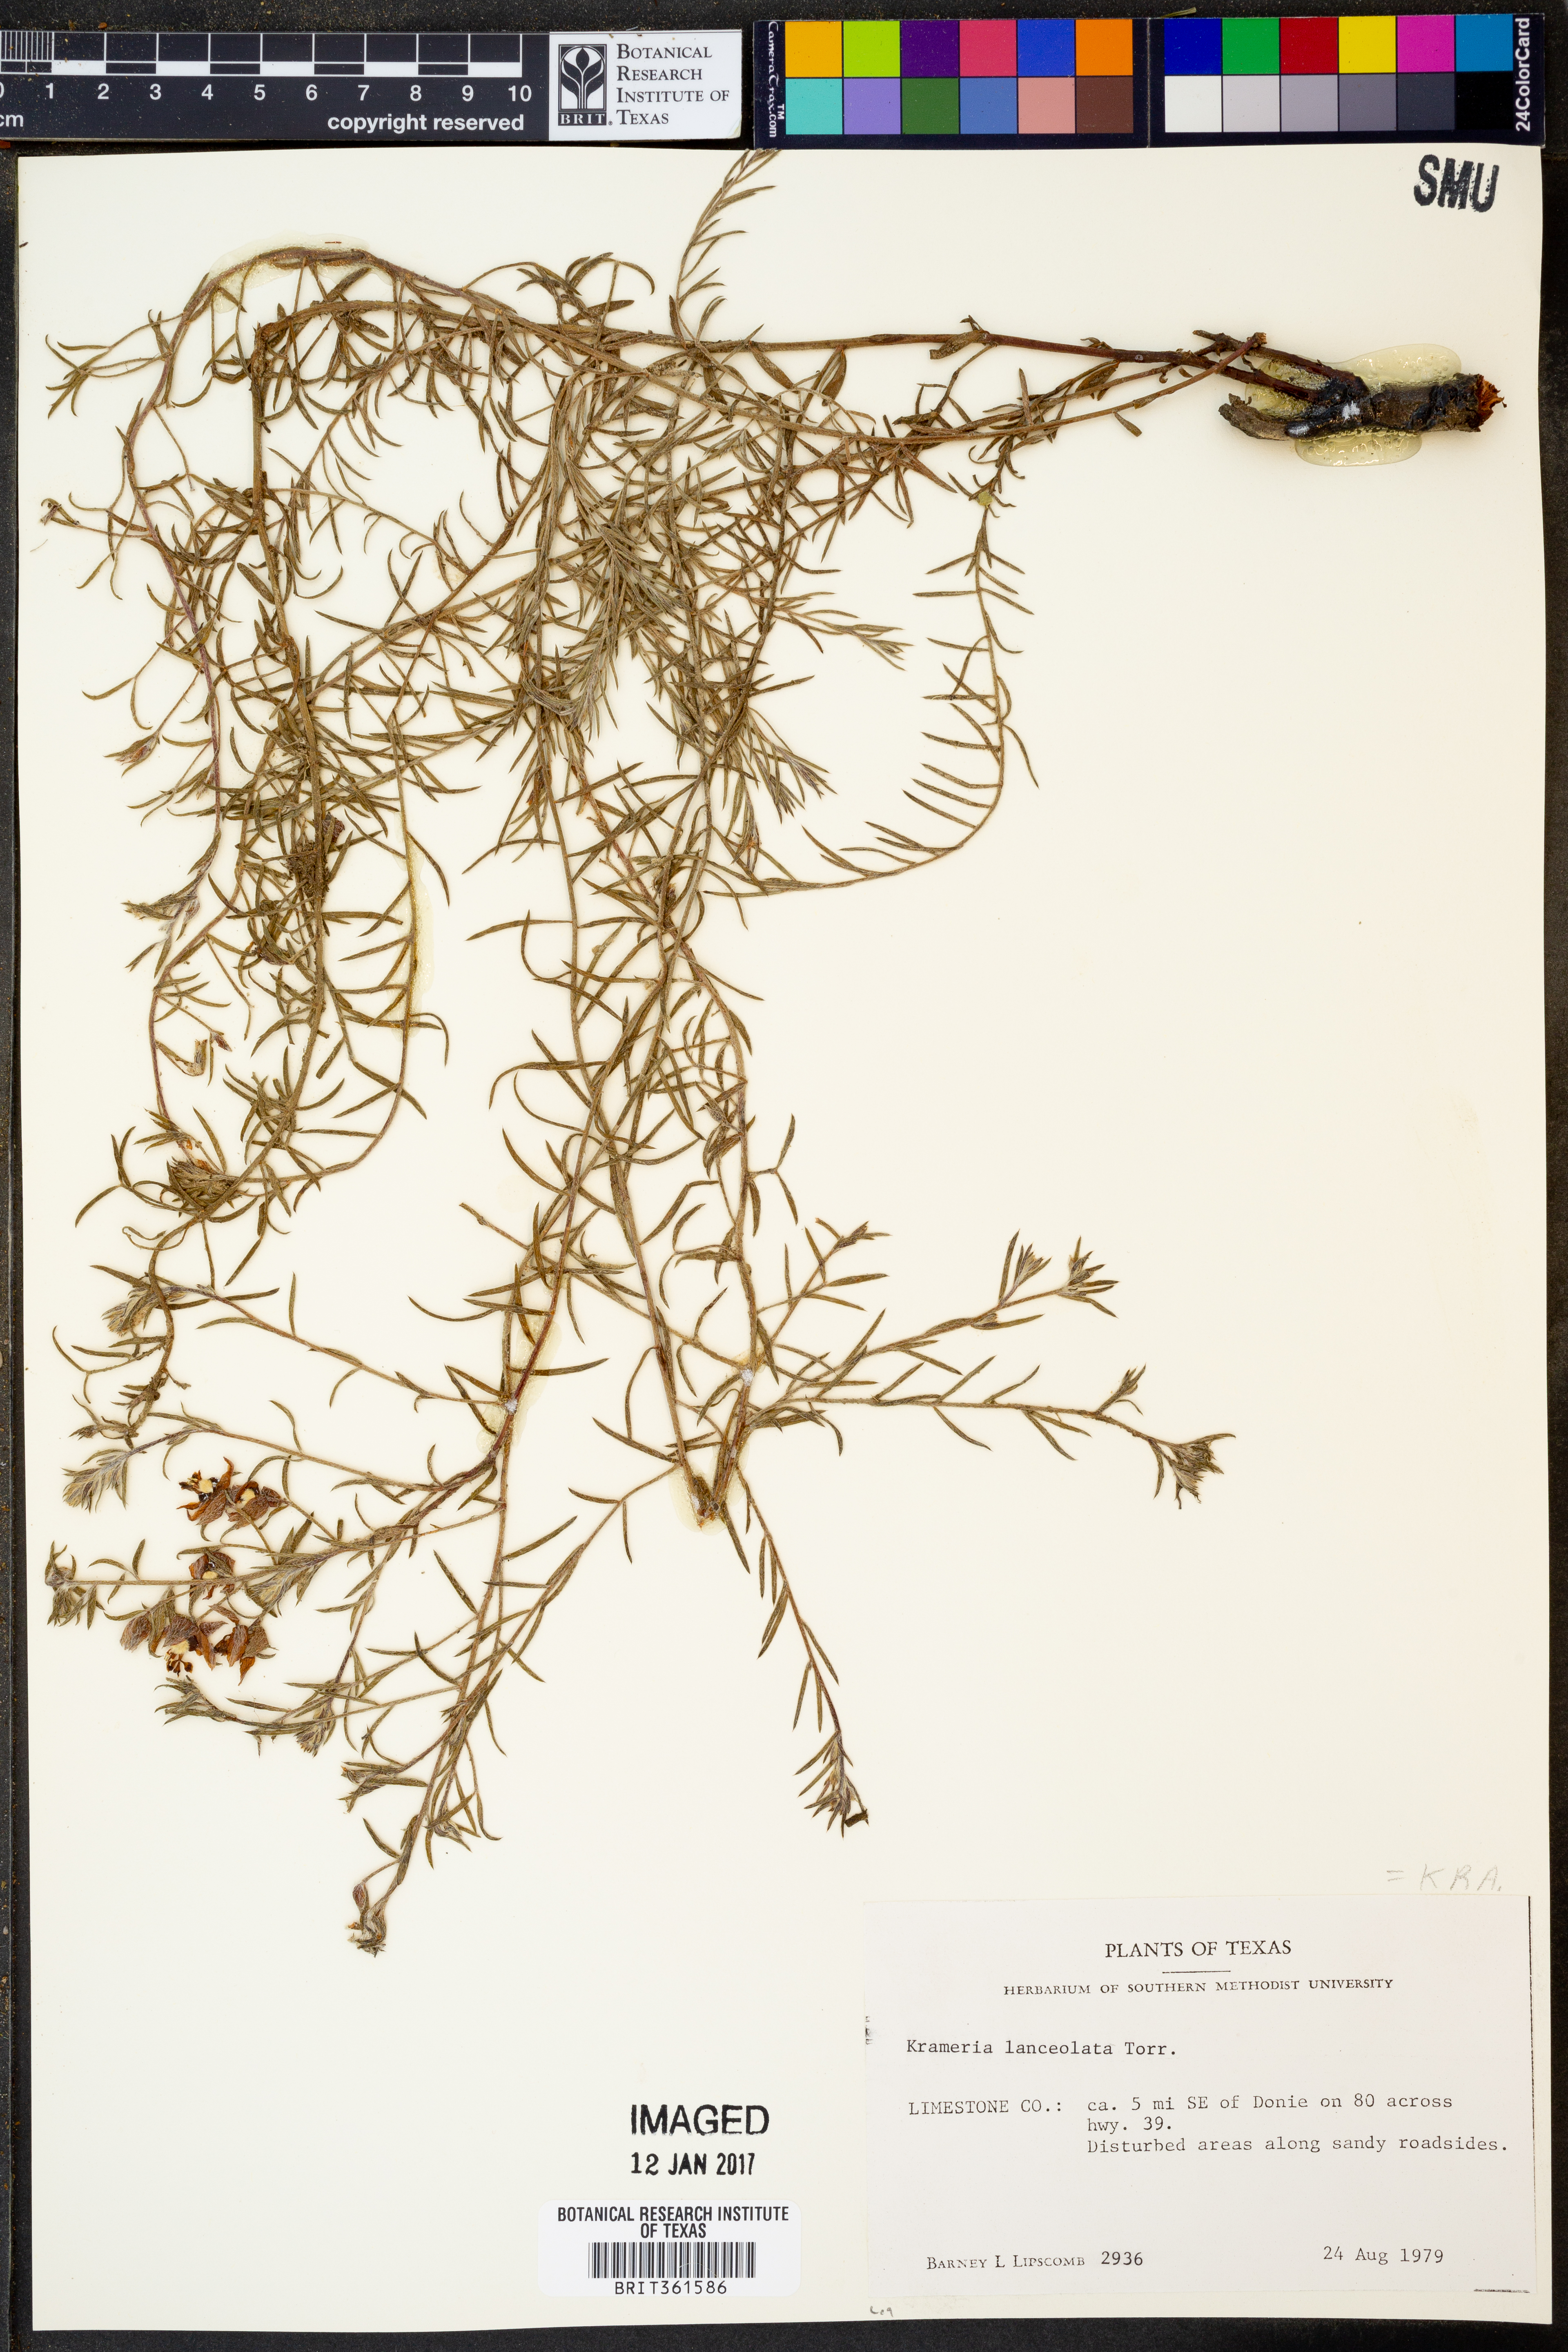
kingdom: Plantae
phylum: Tracheophyta
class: Magnoliopsida
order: Zygophyllales
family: Krameriaceae
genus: Krameria
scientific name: Krameria lanceolata
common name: Ratany
